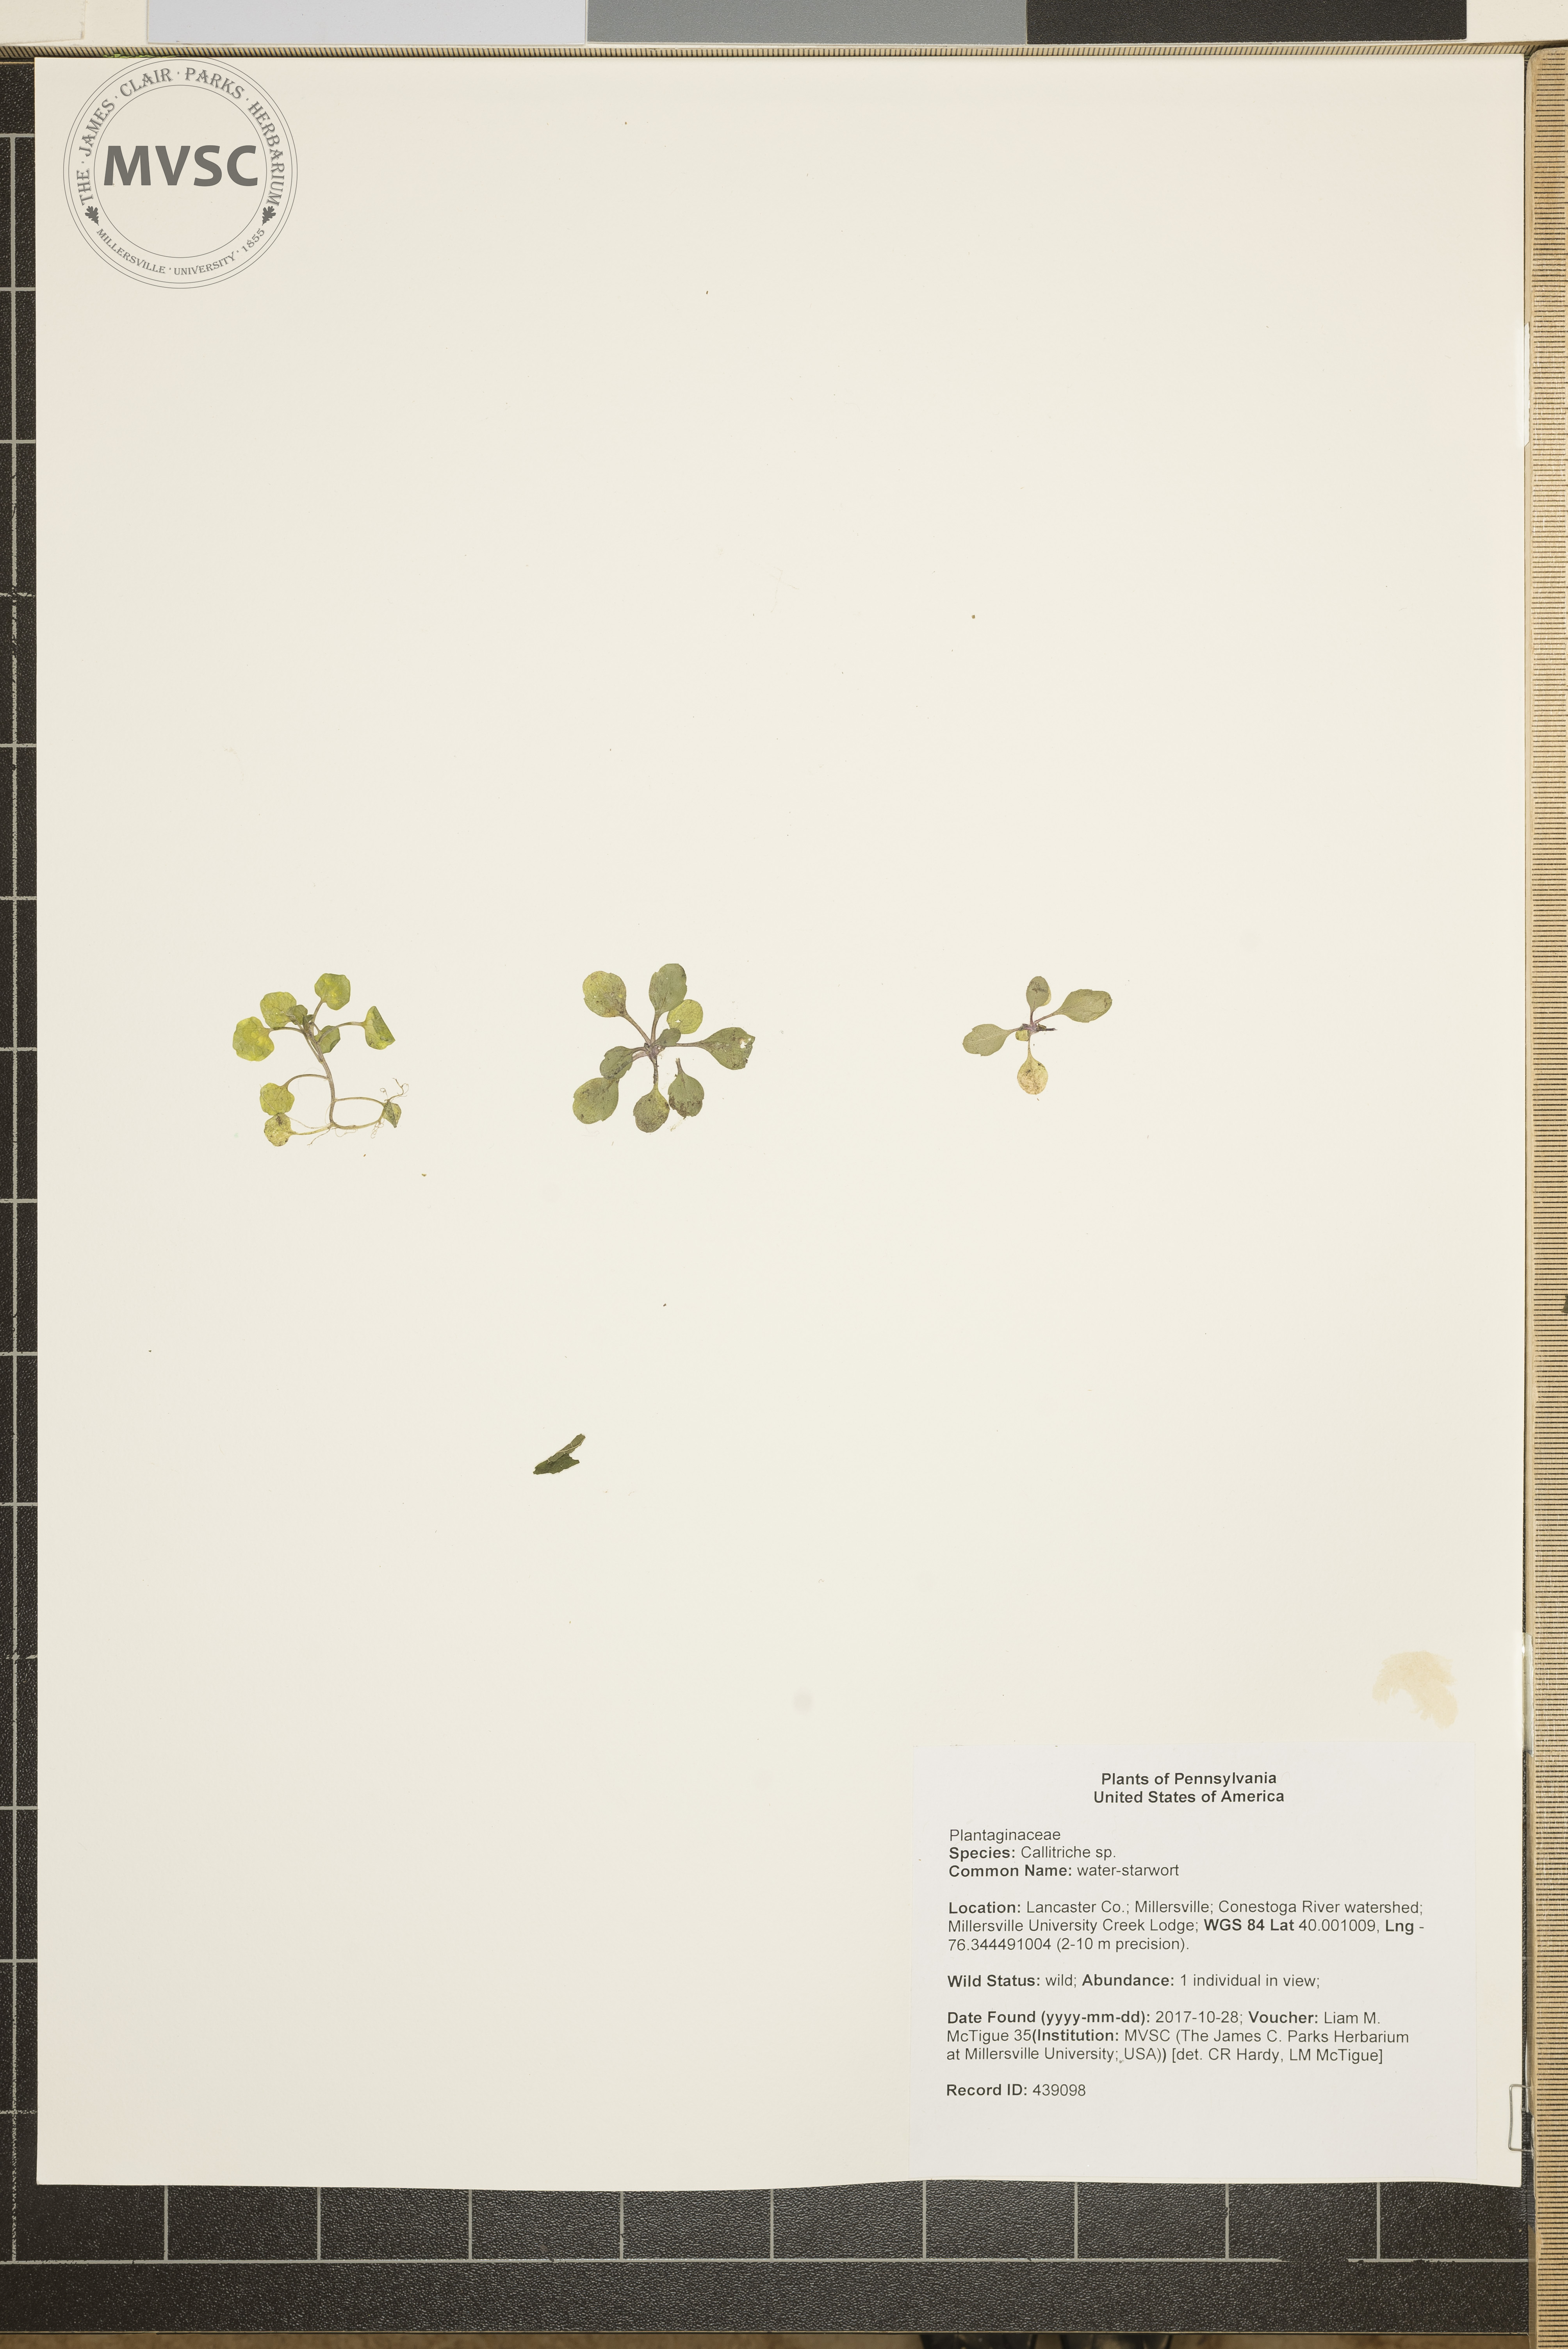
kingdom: Plantae
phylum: Tracheophyta
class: Magnoliopsida
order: Lamiales
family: Plantaginaceae
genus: Callitriche
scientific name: Callitriche
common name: water-starwort
